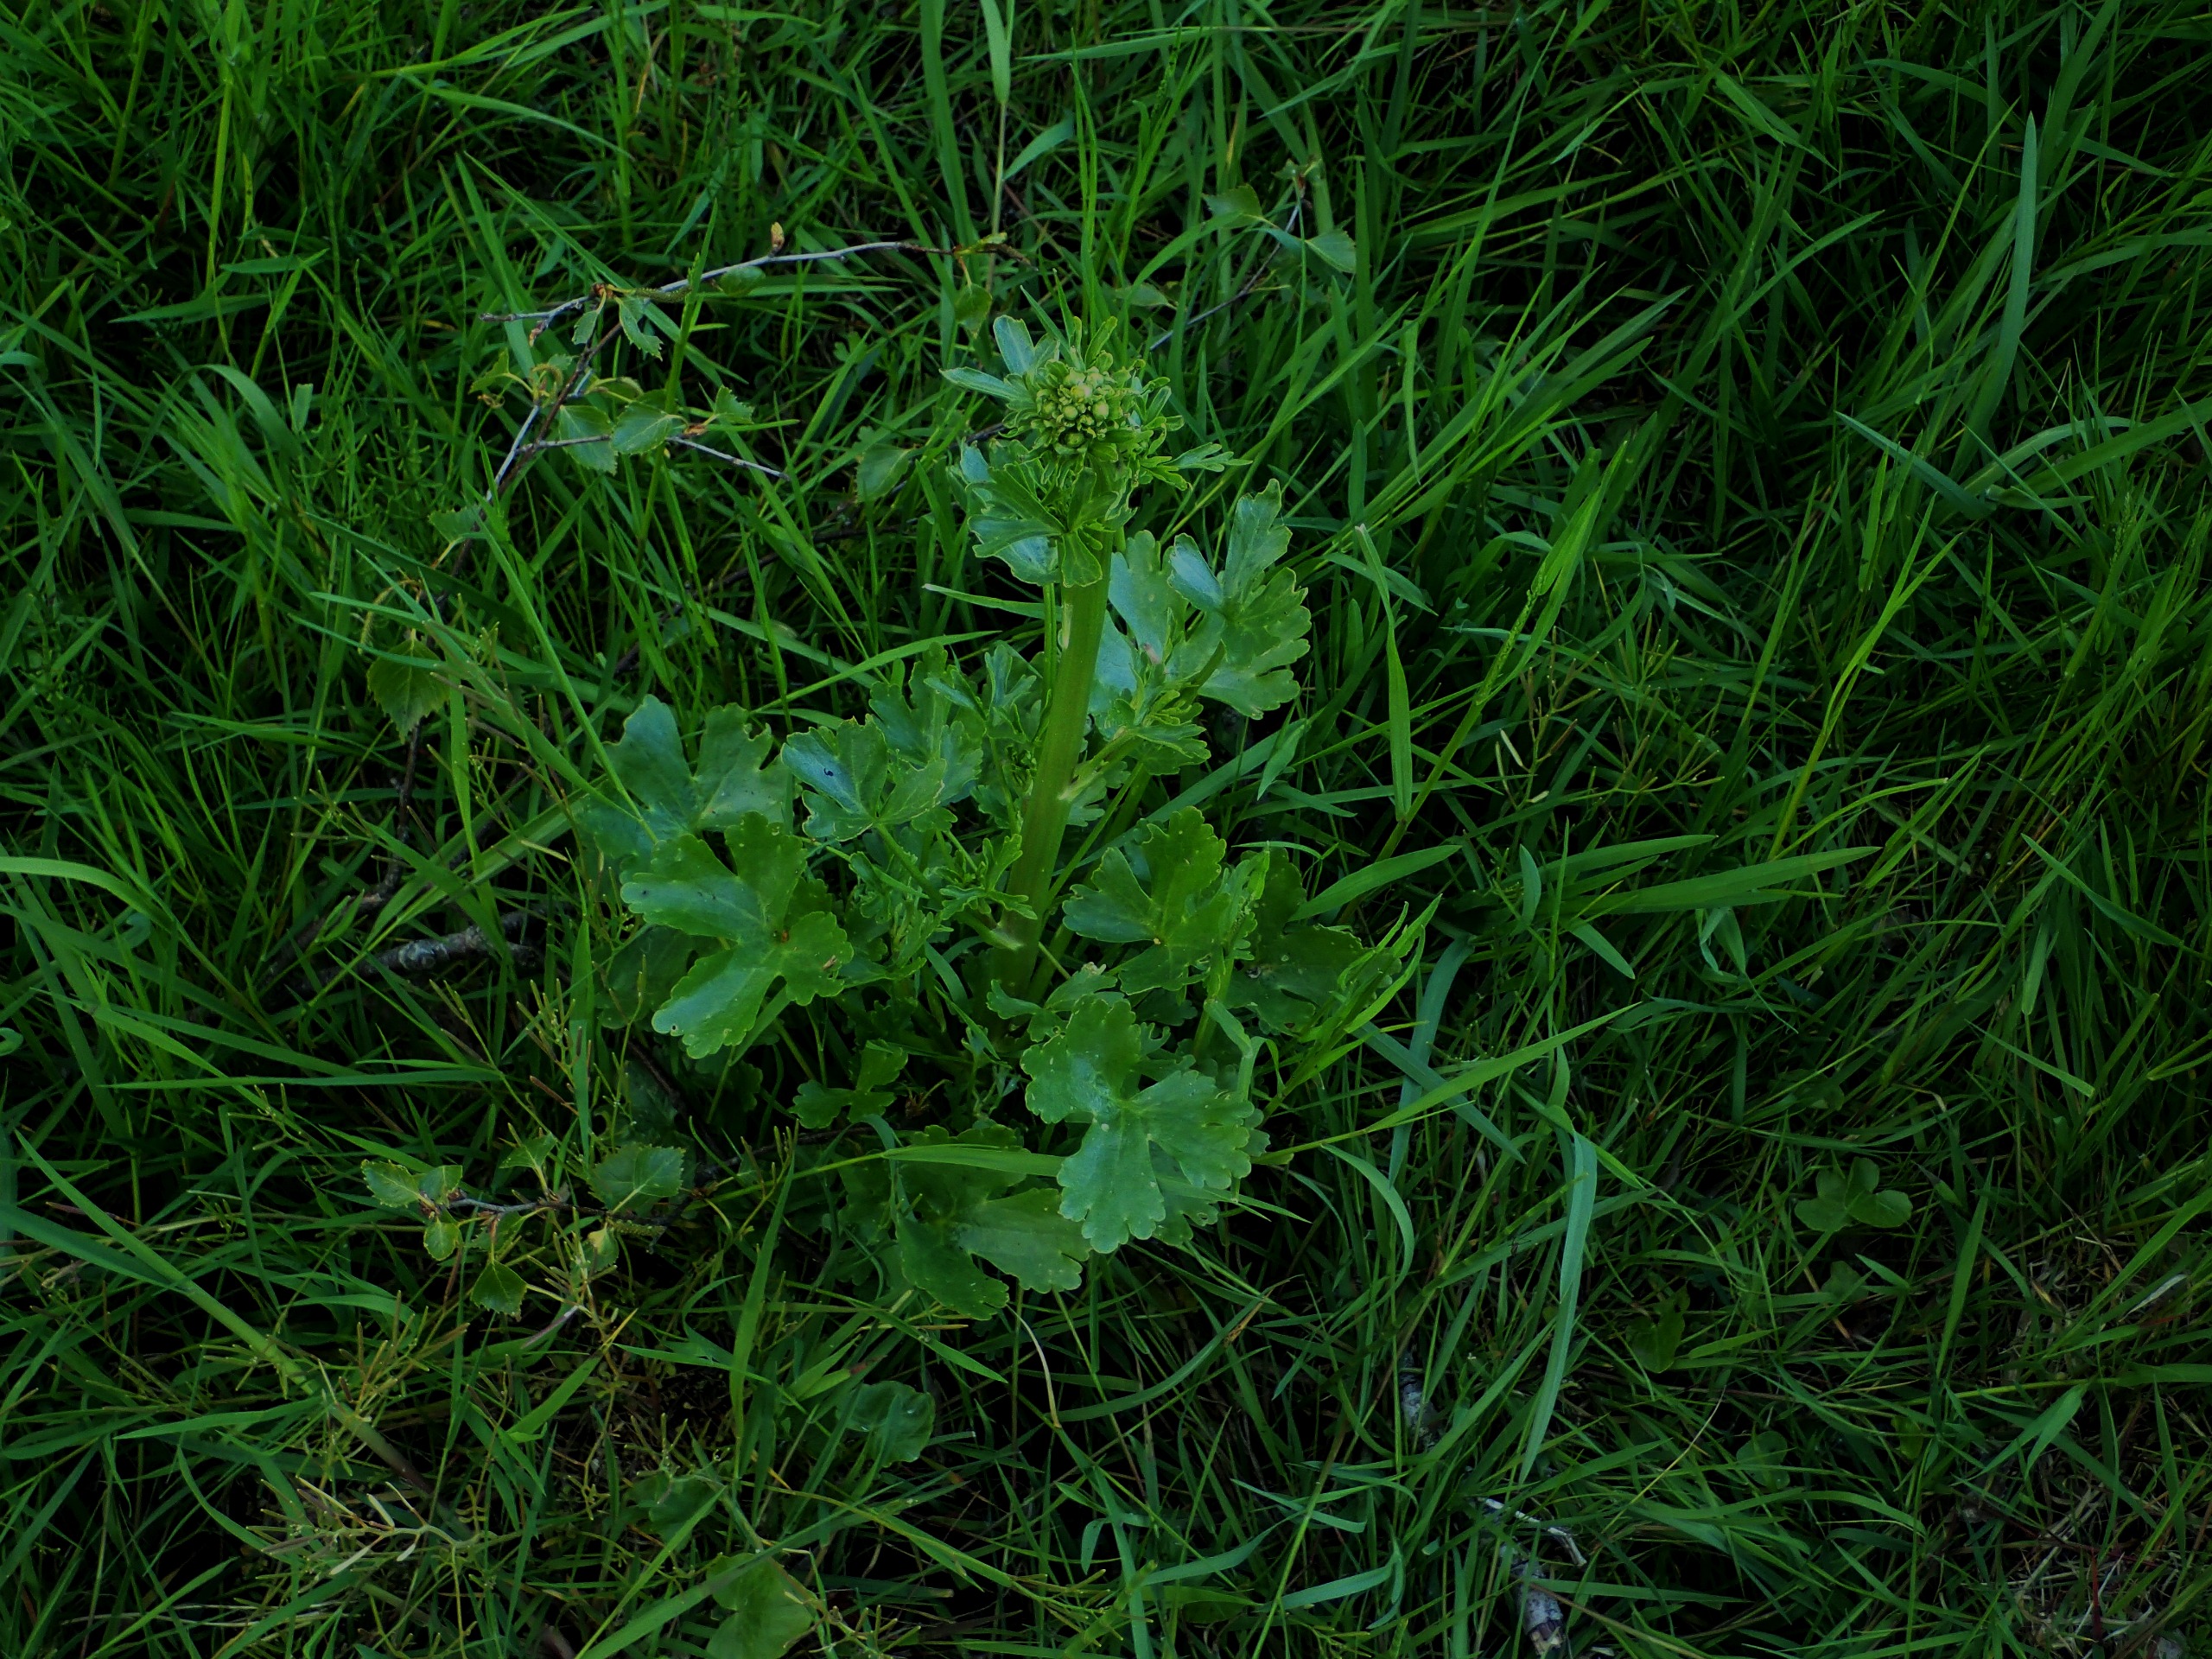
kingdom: Plantae
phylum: Tracheophyta
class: Magnoliopsida
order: Ranunculales
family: Ranunculaceae
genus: Ranunculus
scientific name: Ranunculus sceleratus
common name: Tigger-ranunkel
